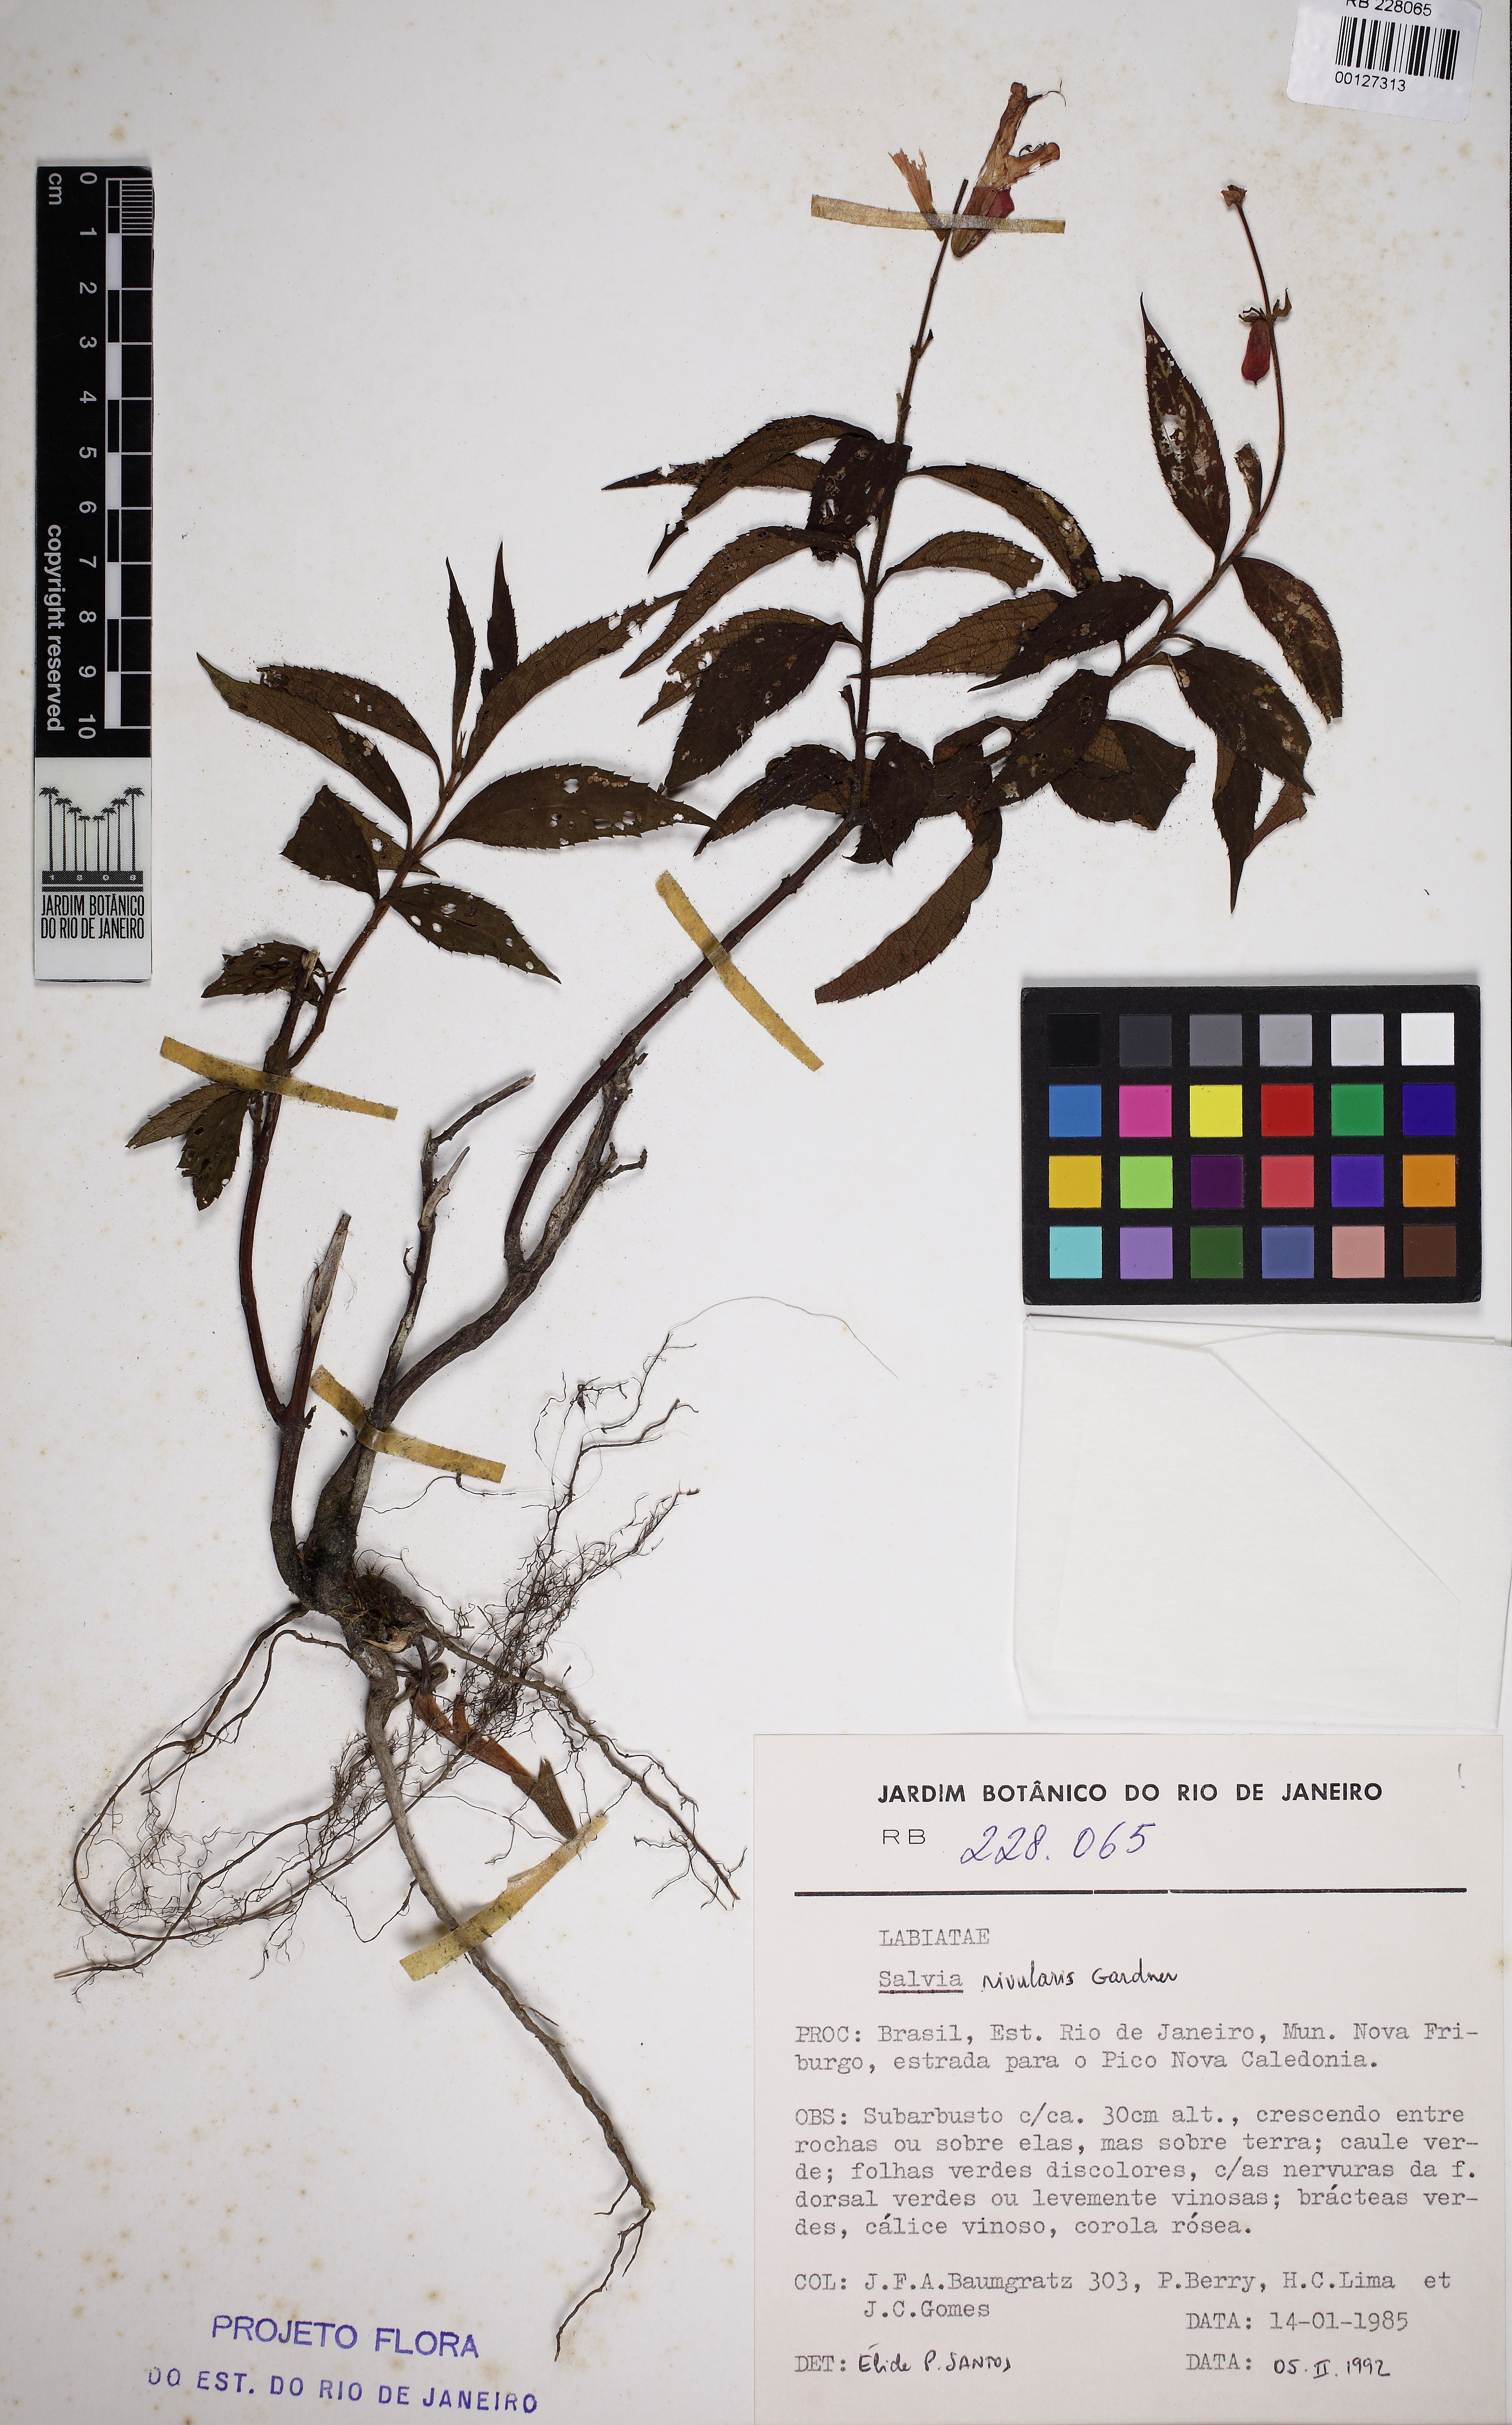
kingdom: Plantae
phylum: Tracheophyta
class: Magnoliopsida
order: Lamiales
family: Lamiaceae
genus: Salvia
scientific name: Salvia rivularis
